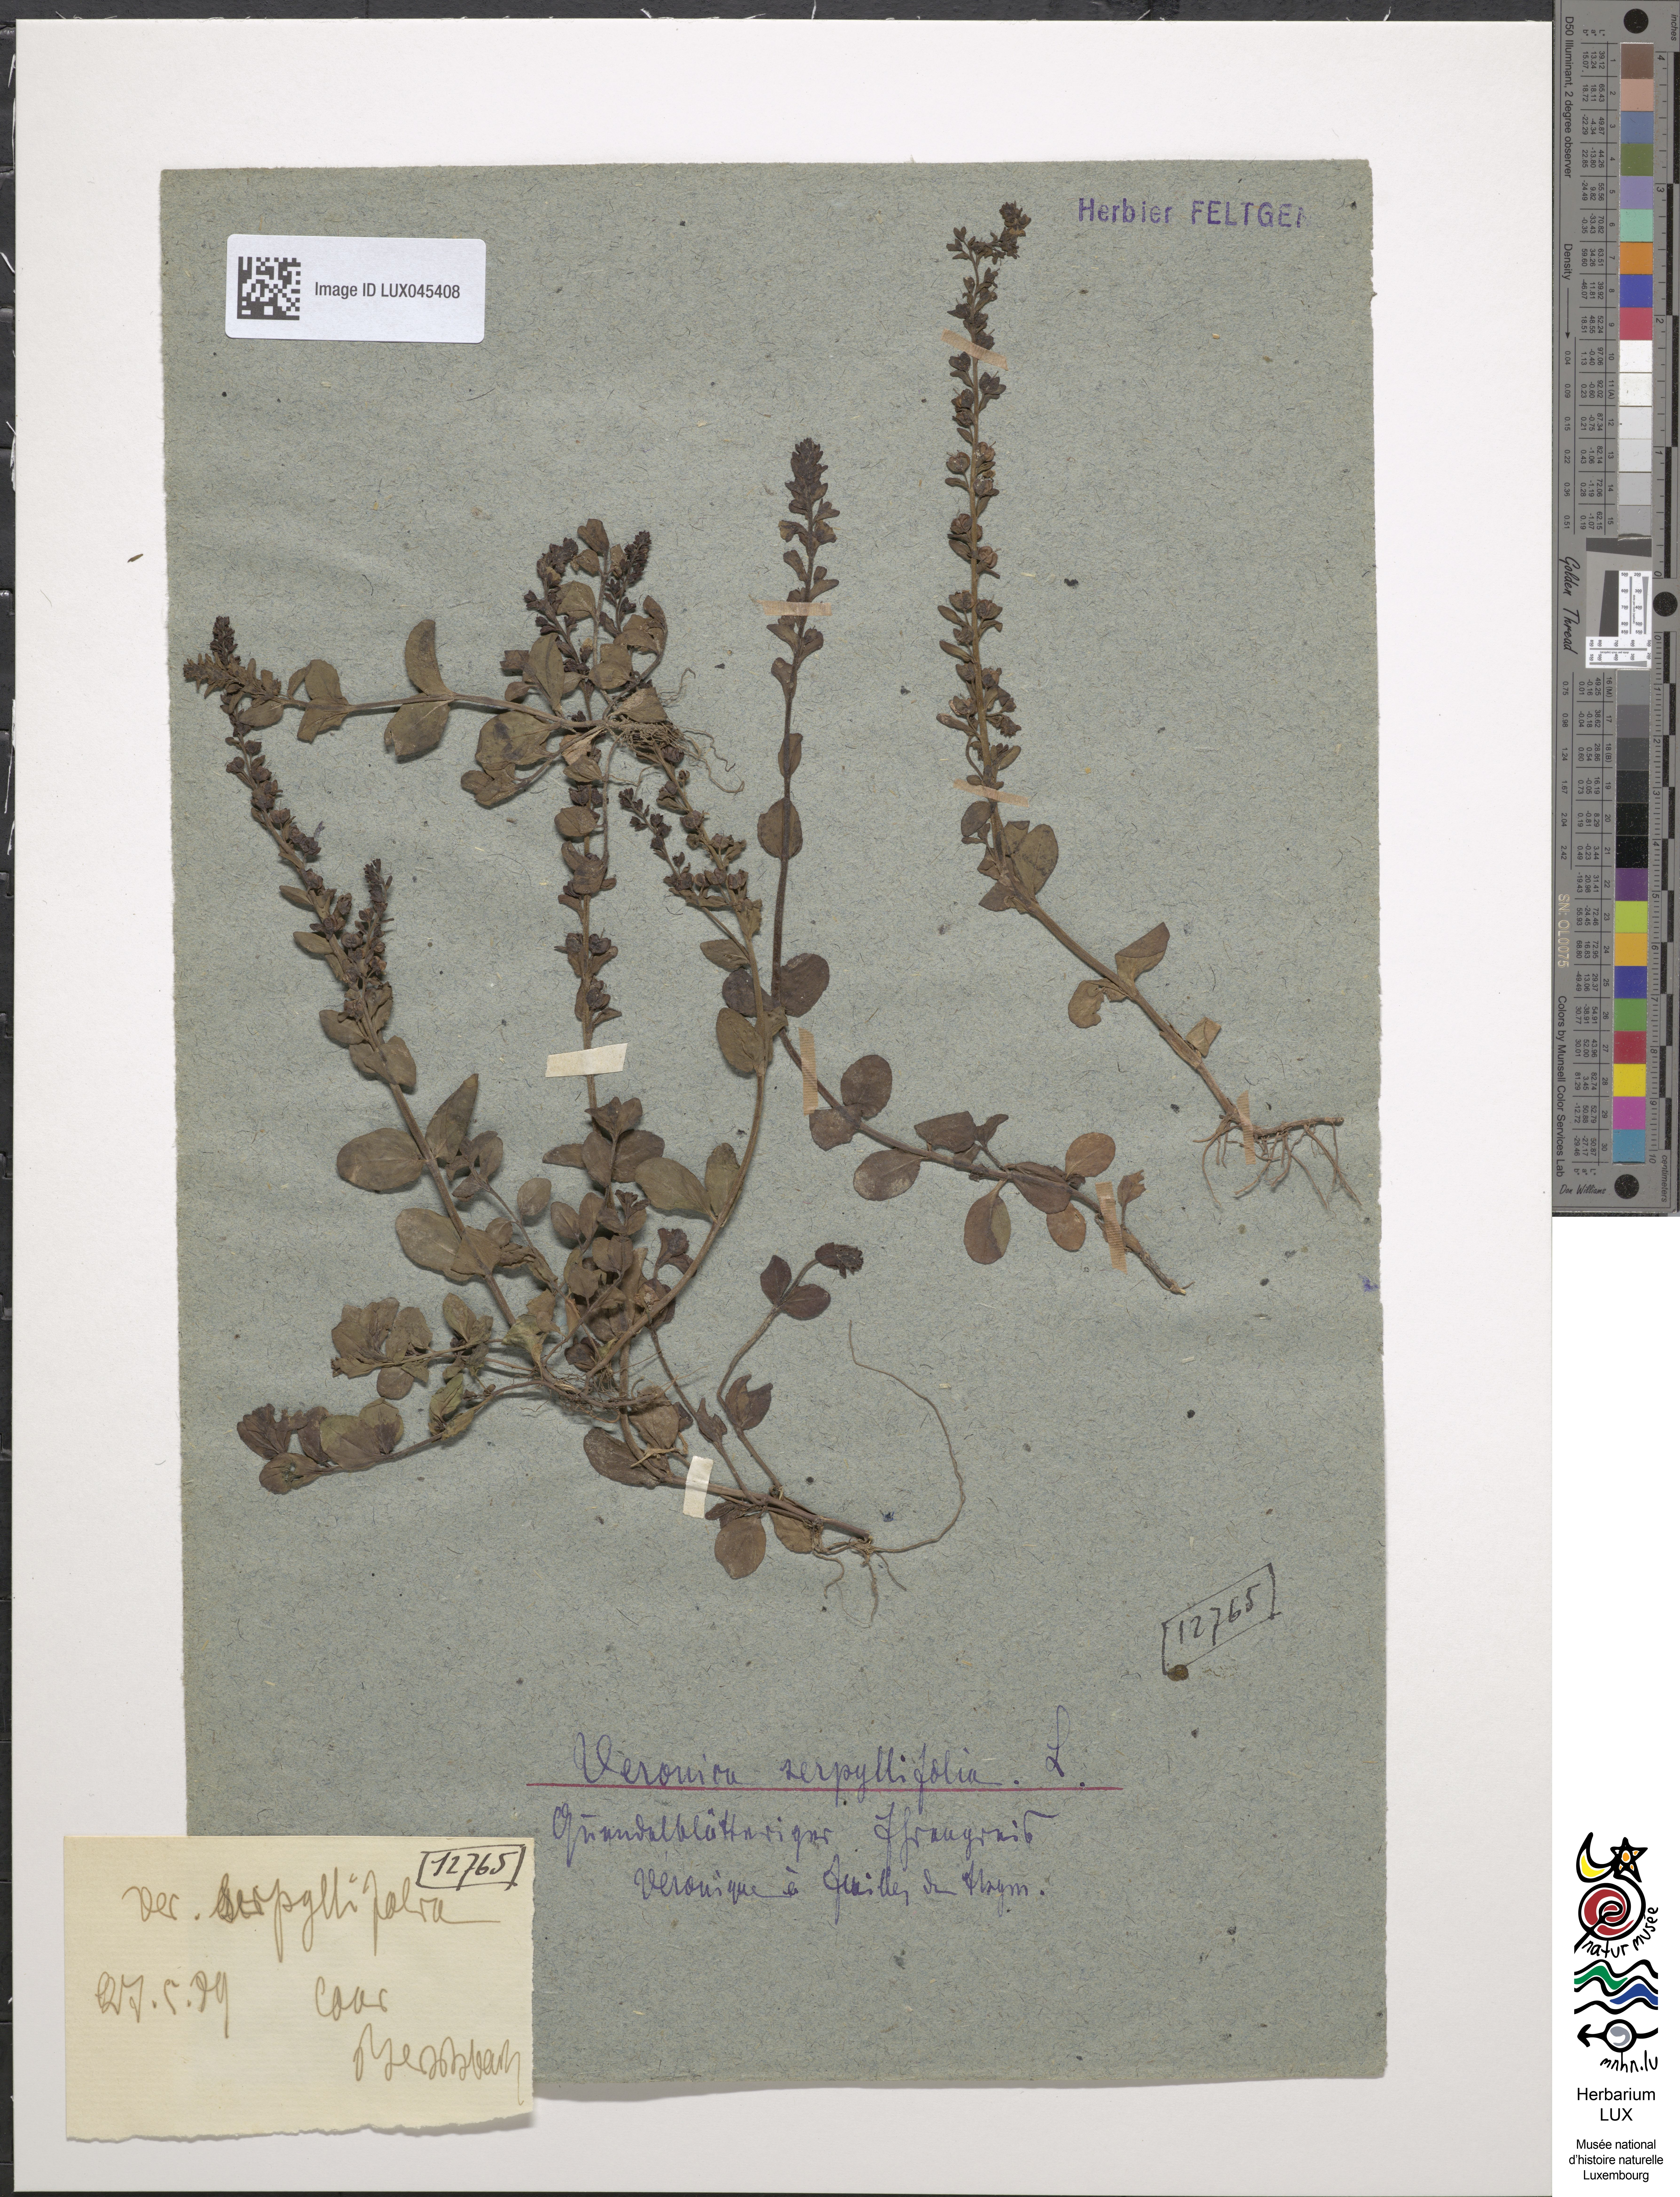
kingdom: Plantae
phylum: Tracheophyta
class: Magnoliopsida
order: Lamiales
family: Plantaginaceae
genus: Veronica
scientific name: Veronica serpyllifolia
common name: Thyme-leaved speedwell
